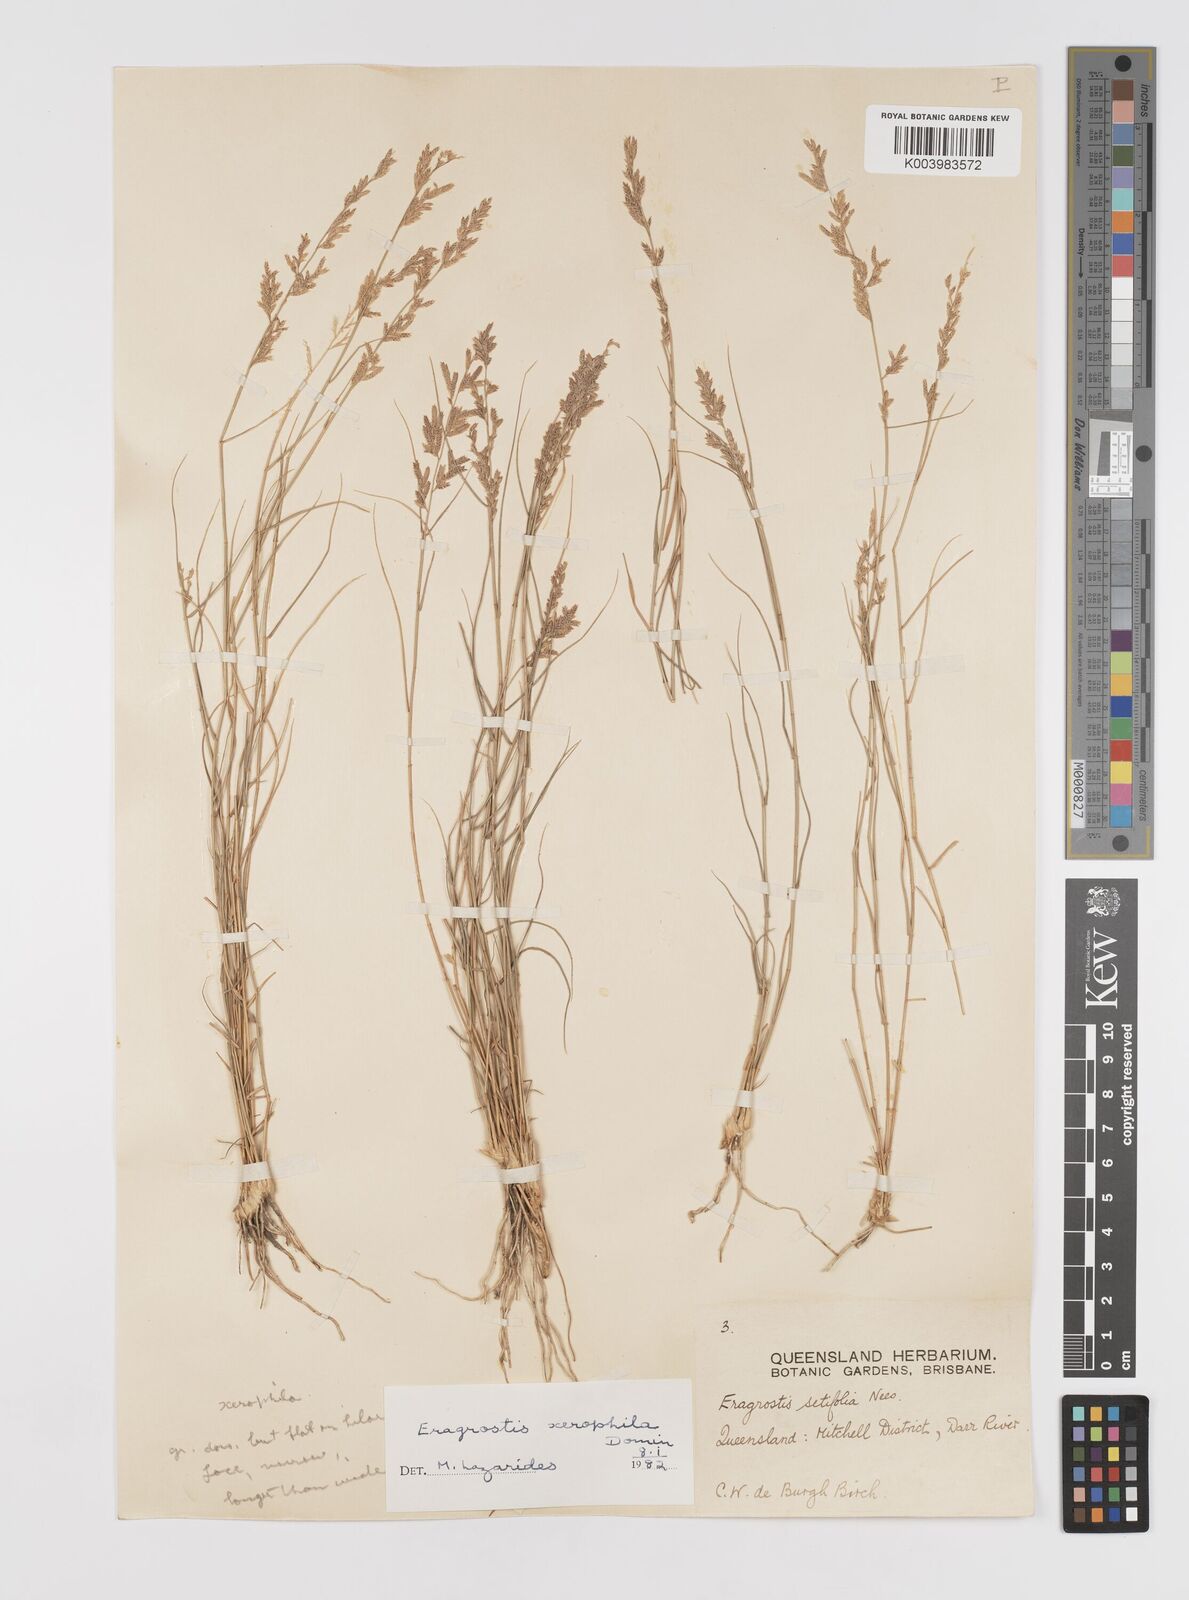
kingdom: Plantae
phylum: Tracheophyta
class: Liliopsida
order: Poales
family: Poaceae
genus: Eragrostis
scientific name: Eragrostis xerophila
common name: Wire wandarrie grass
